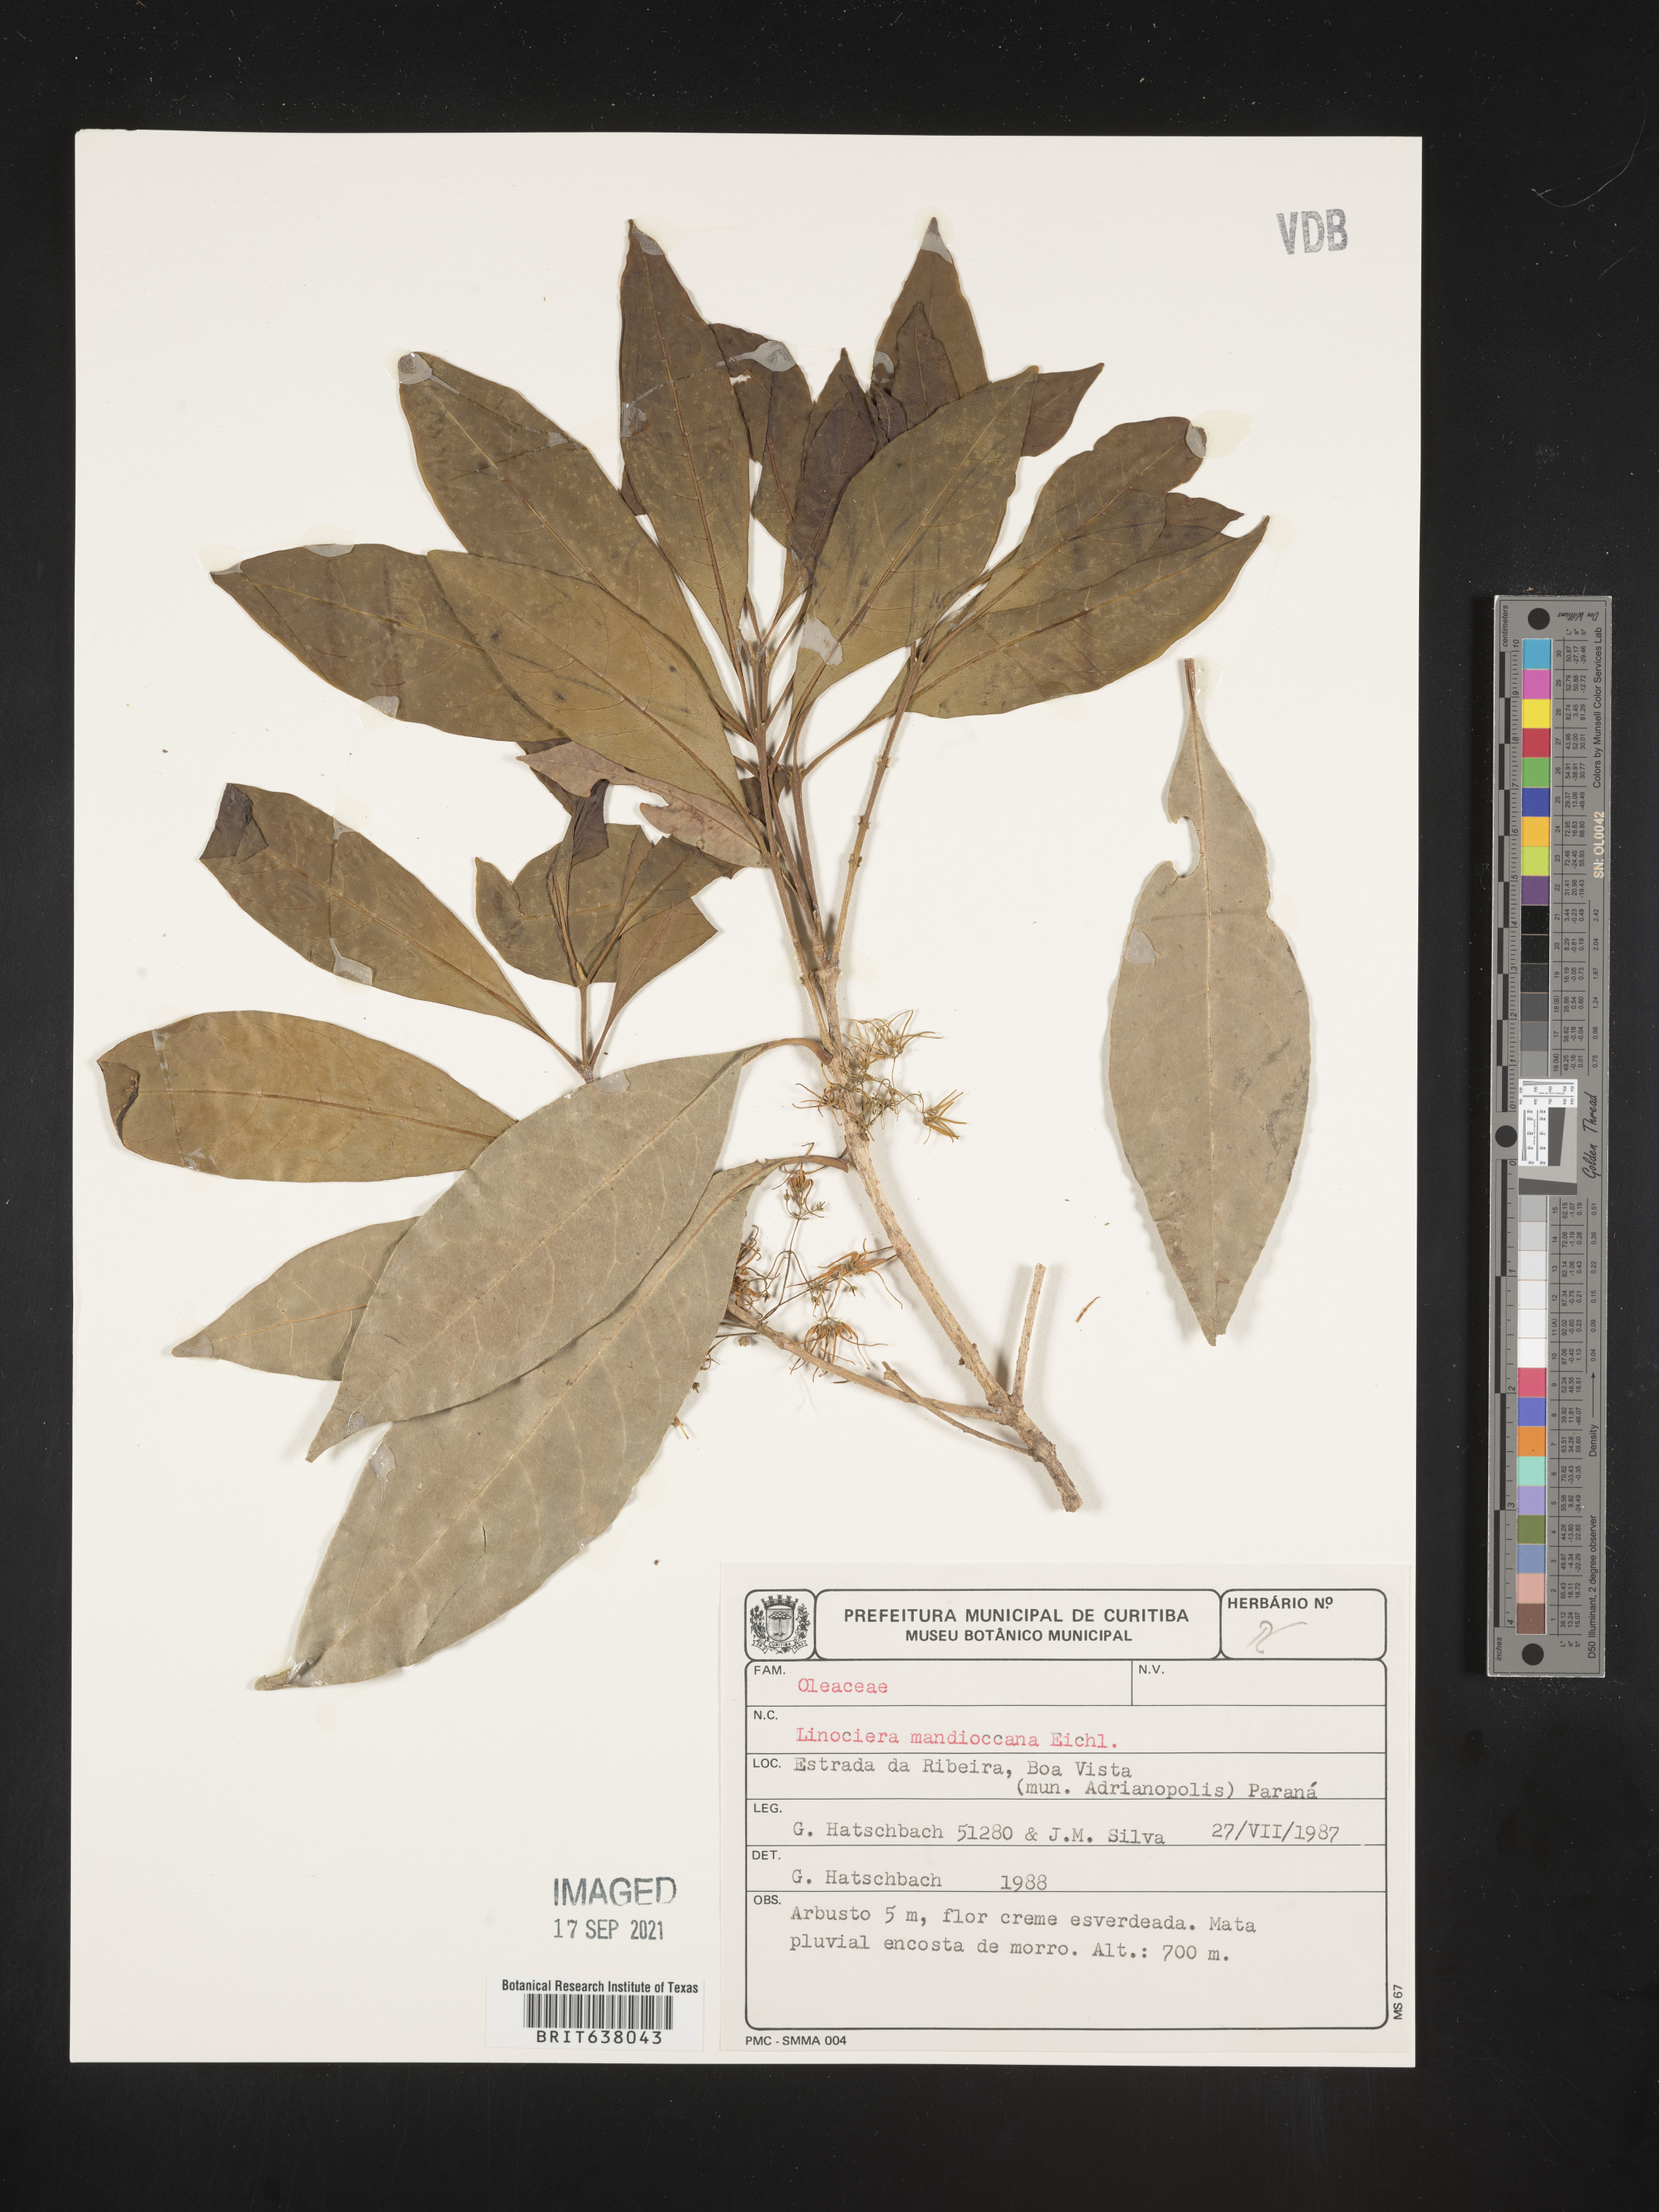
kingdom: Plantae
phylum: Tracheophyta
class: Magnoliopsida
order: Lamiales
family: Oleaceae
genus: Chionanthus
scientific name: Chionanthus
